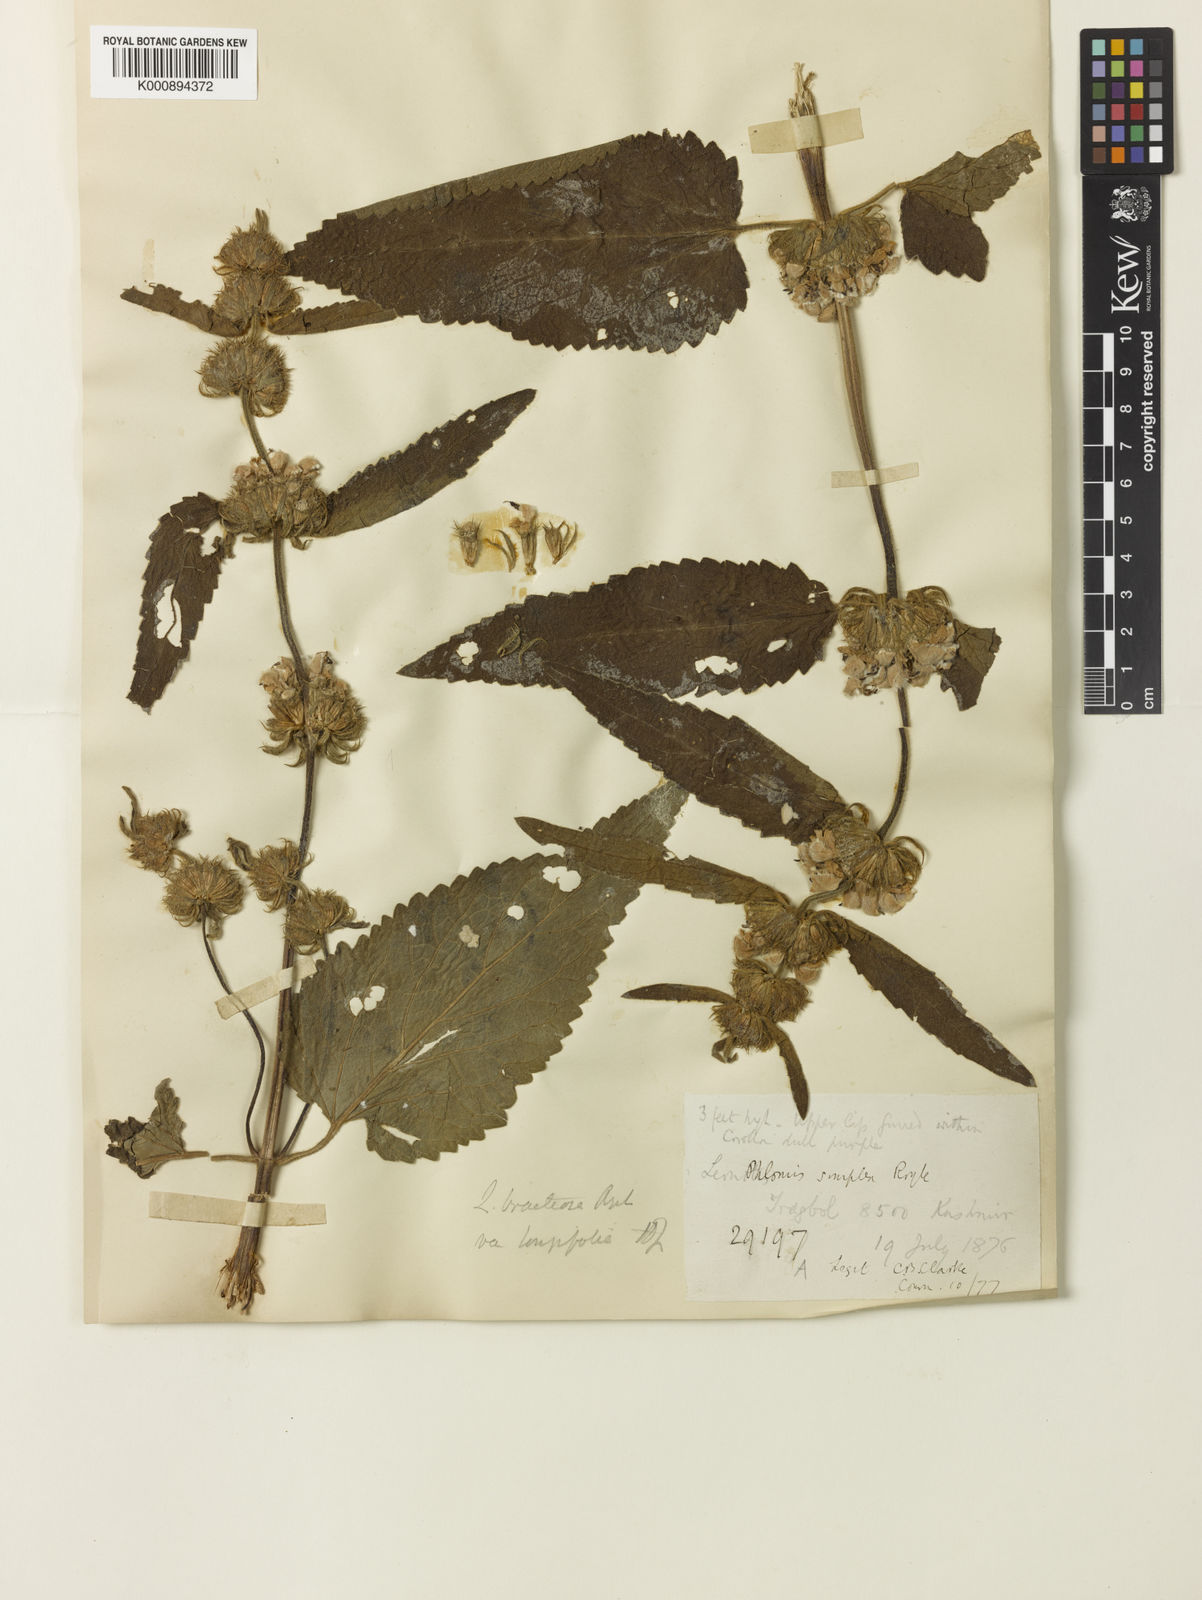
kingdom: Plantae
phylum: Tracheophyta
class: Magnoliopsida
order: Lamiales
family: Lamiaceae
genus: Phlomoides
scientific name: Phlomoides bracteosa
